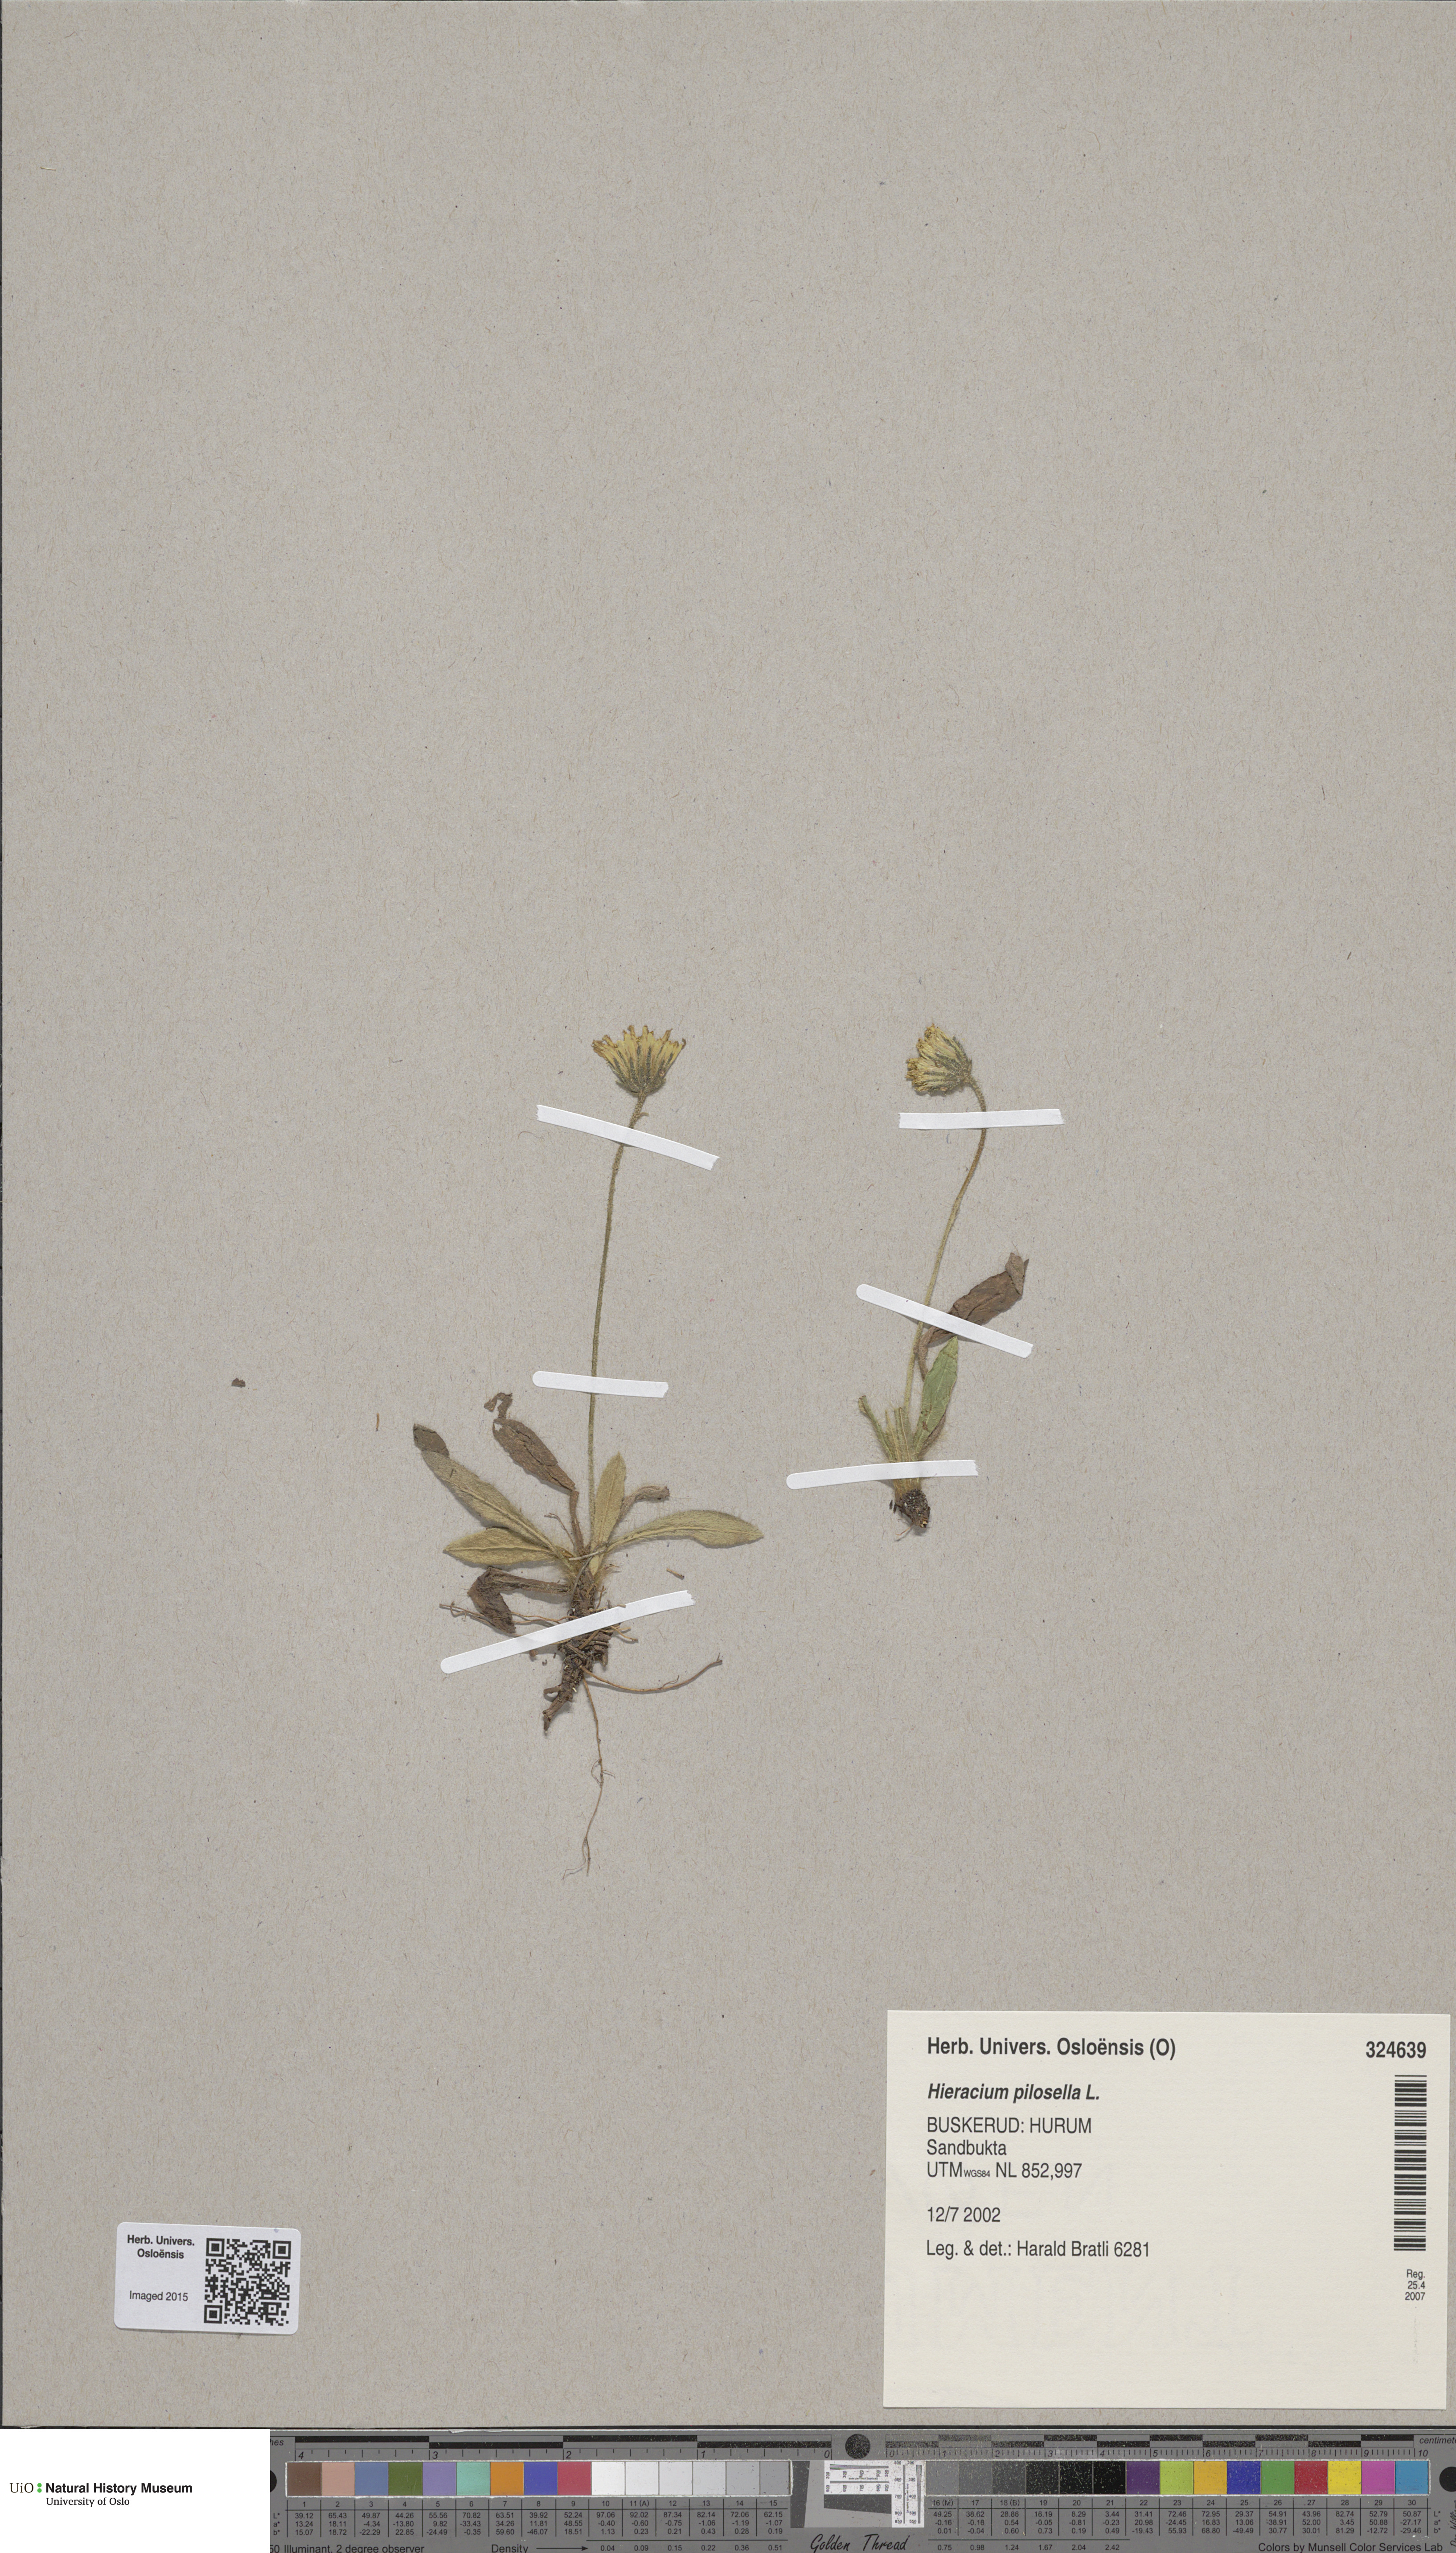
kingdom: Plantae
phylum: Tracheophyta
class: Magnoliopsida
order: Asterales
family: Asteraceae
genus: Pilosella
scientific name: Pilosella officinarum
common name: Mouse-ear hawkweed
